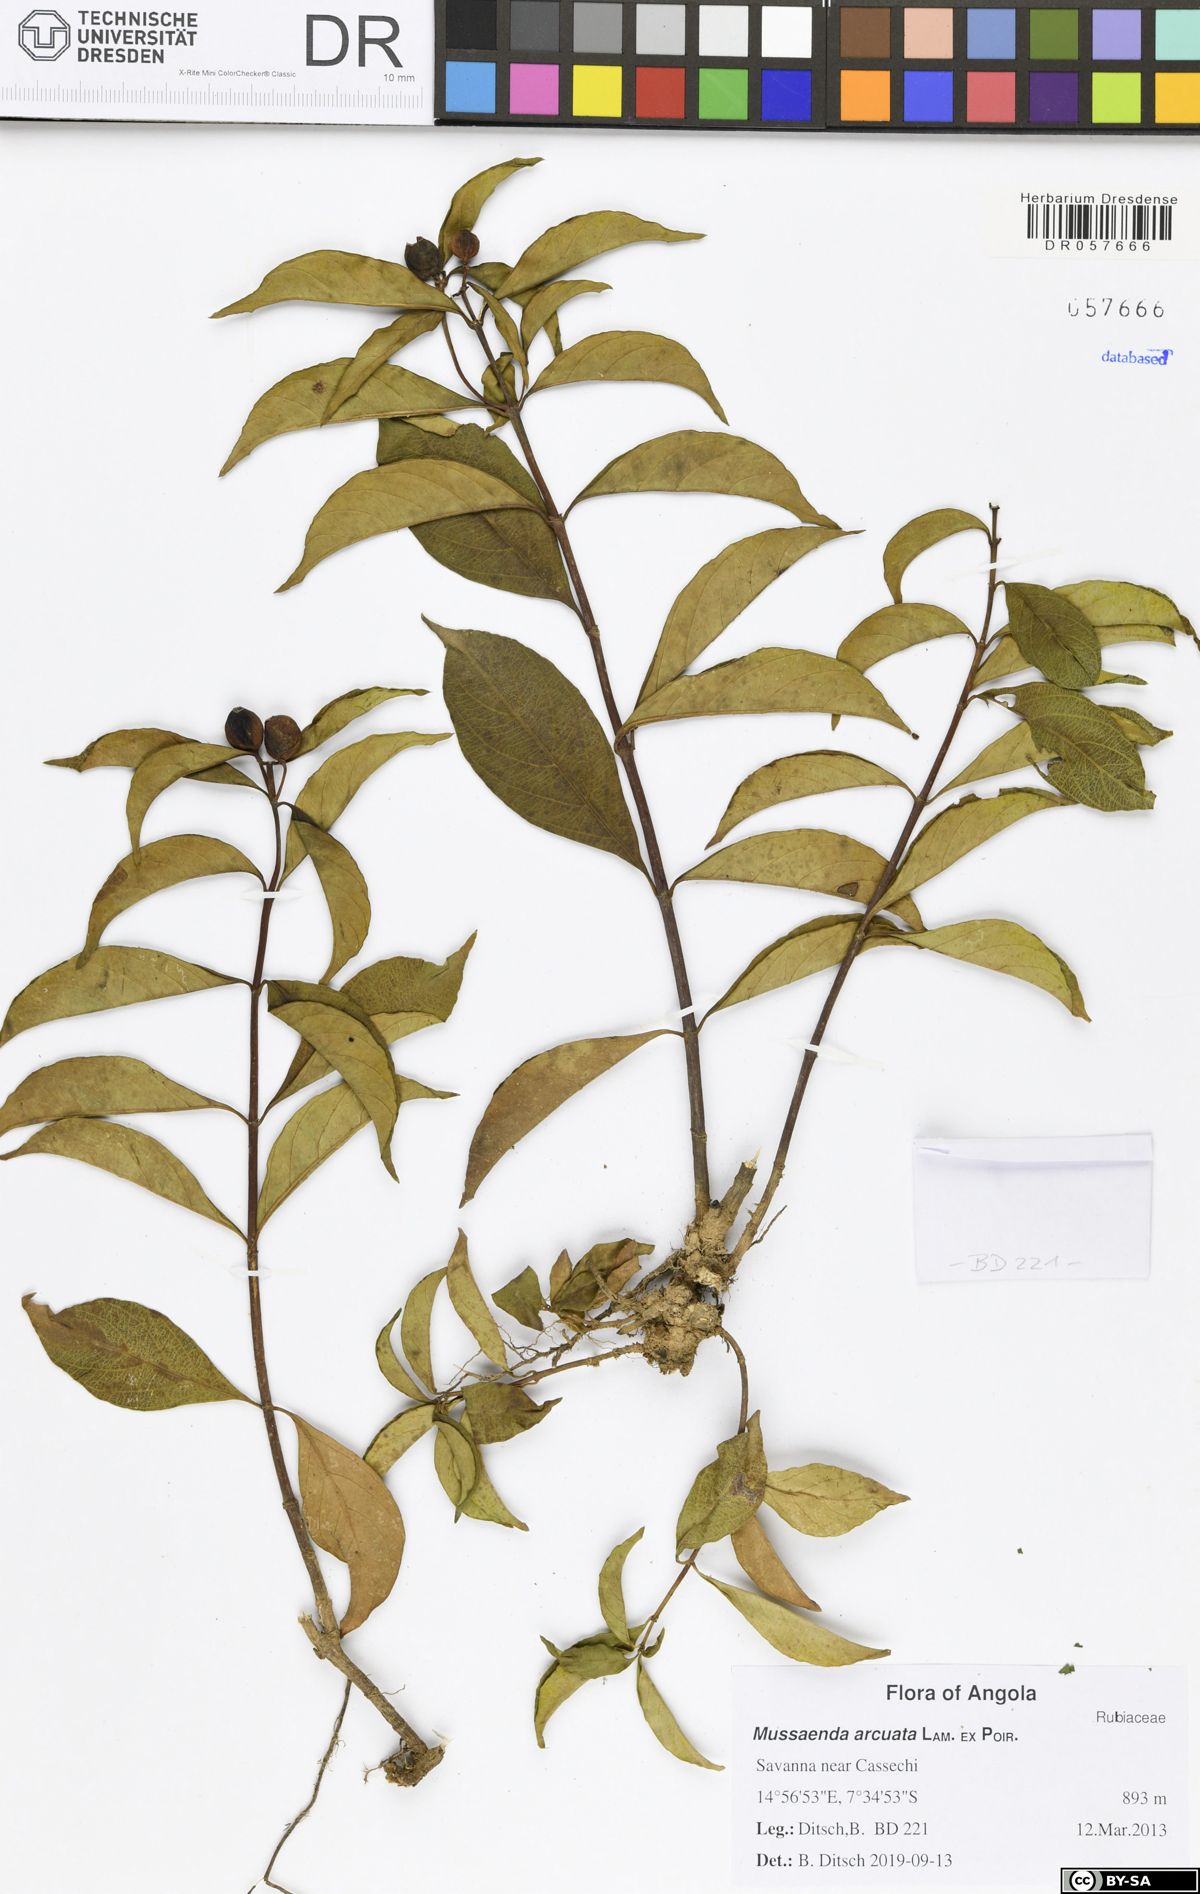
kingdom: Plantae
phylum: Tracheophyta
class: Magnoliopsida
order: Gentianales
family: Rubiaceae
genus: Mussaenda
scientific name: Mussaenda arcuata
